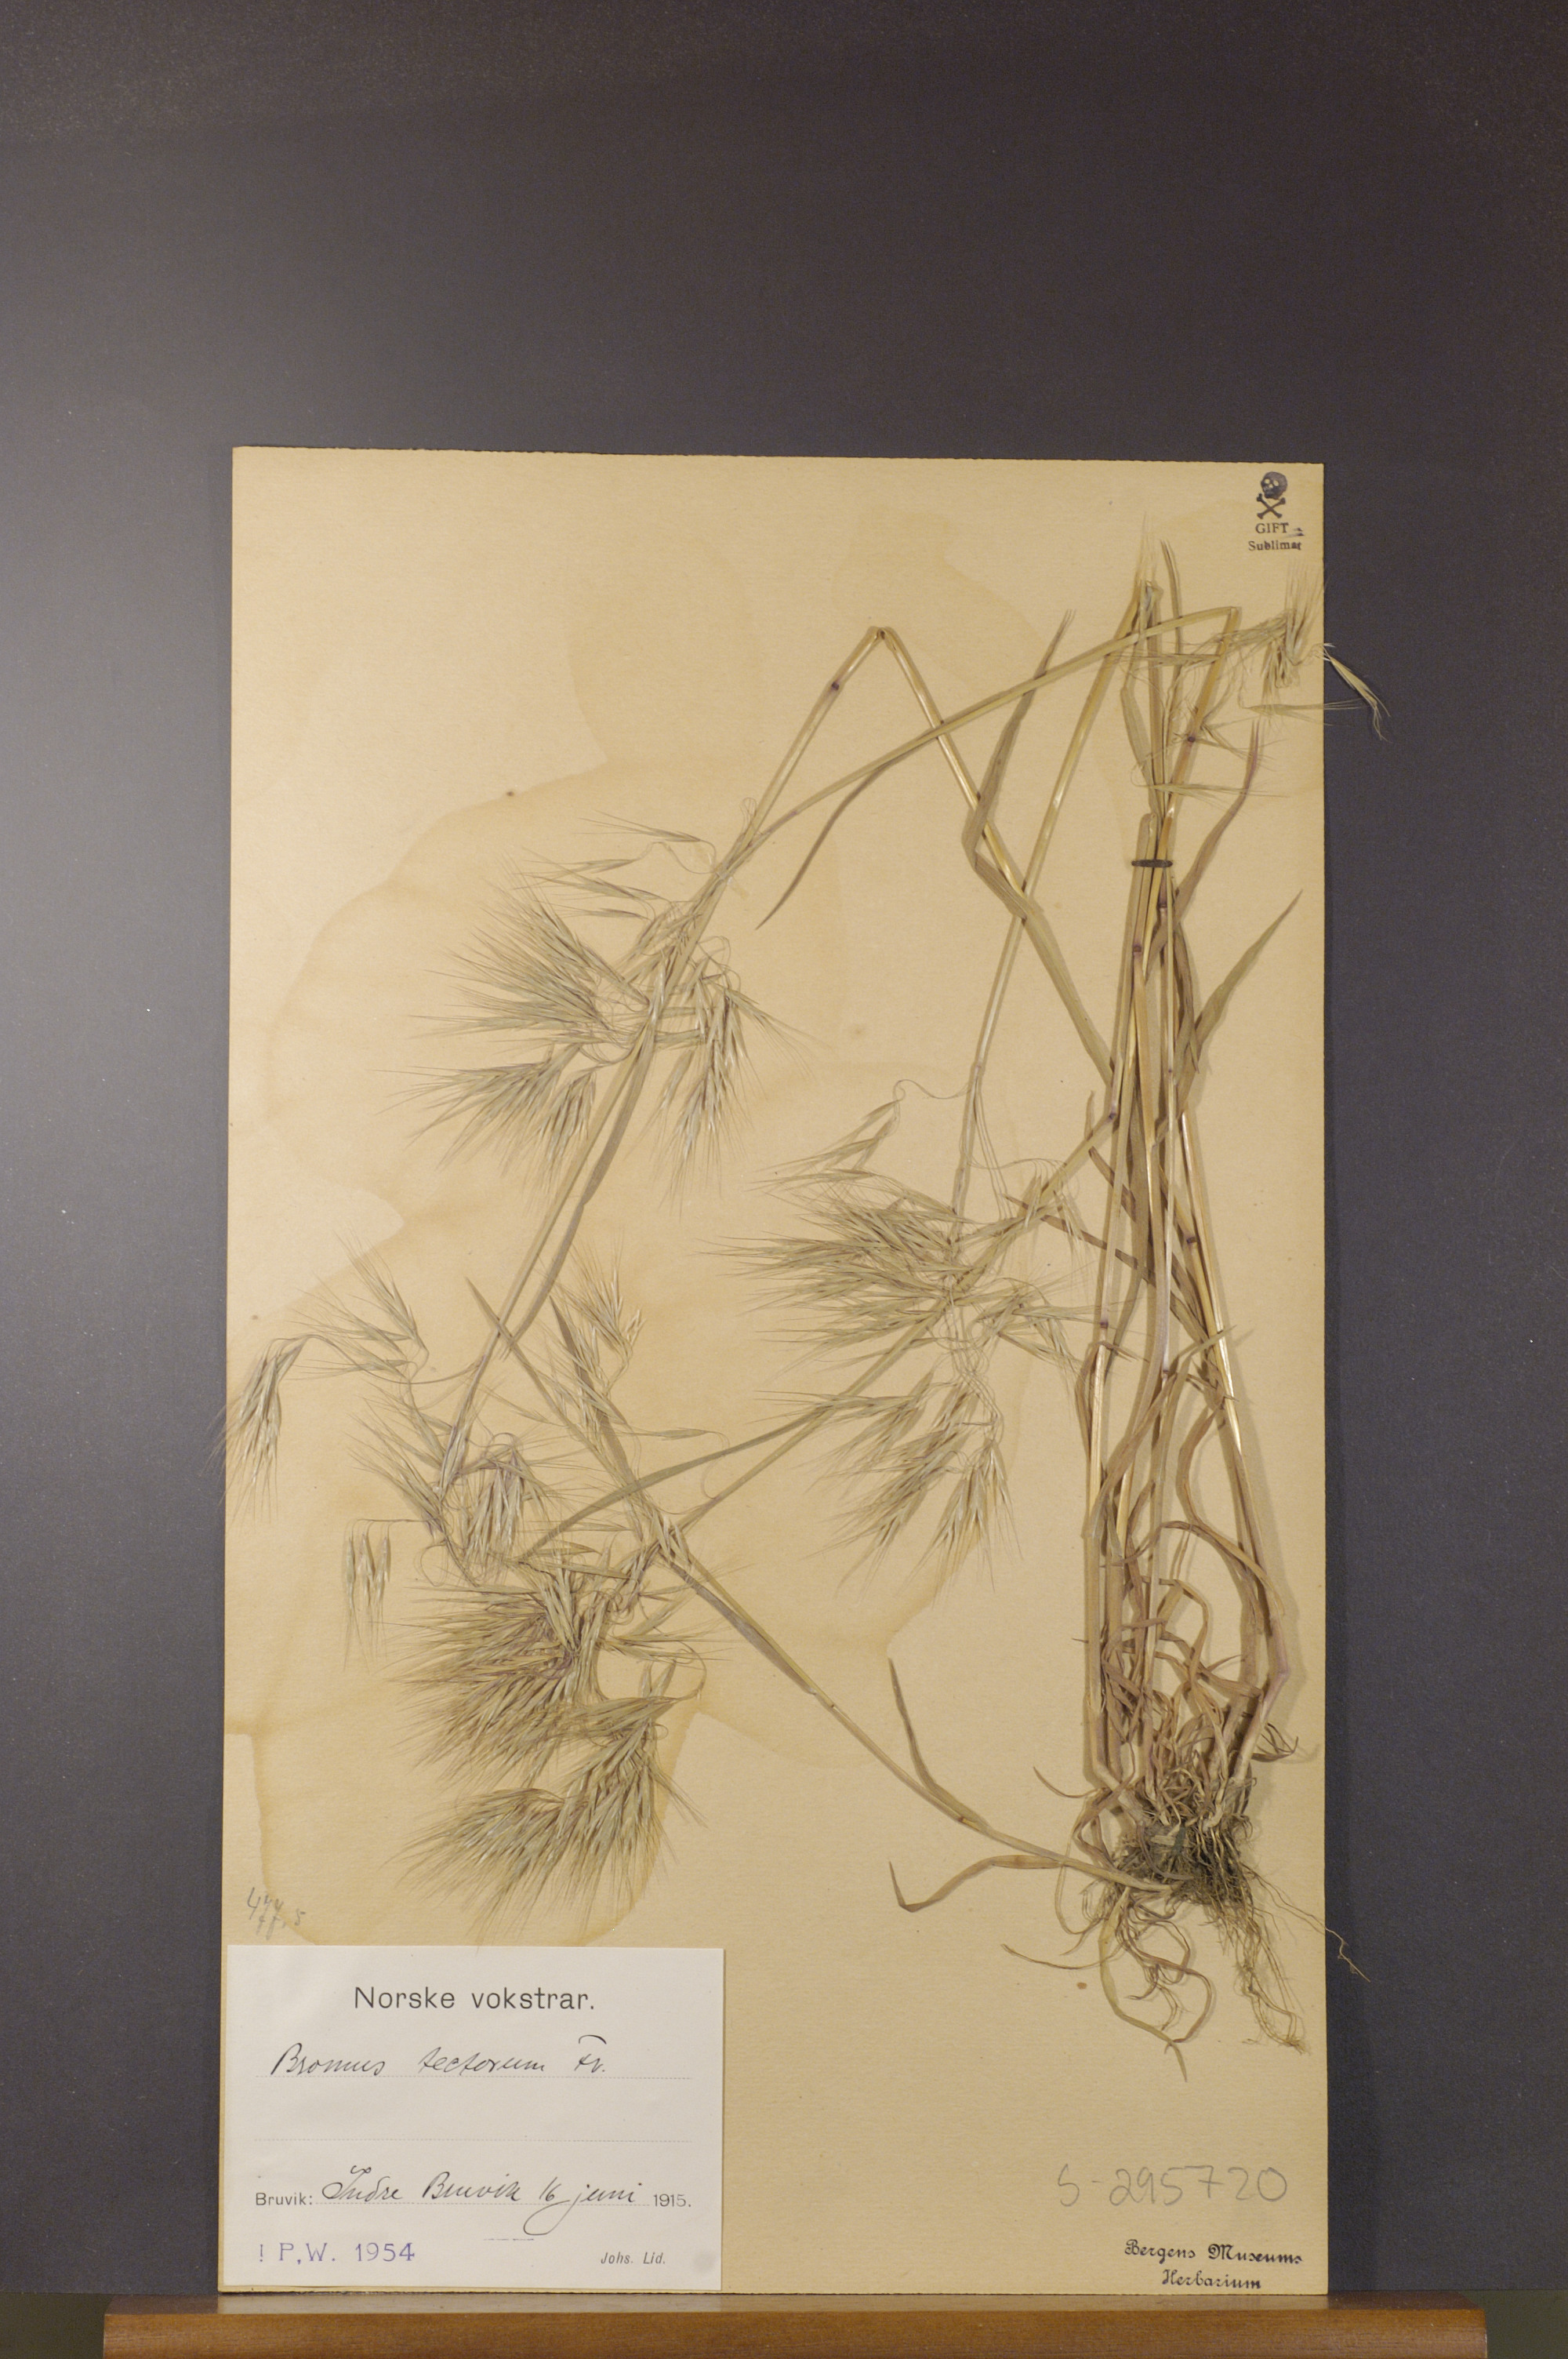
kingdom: Plantae
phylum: Tracheophyta
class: Liliopsida
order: Poales
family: Poaceae
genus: Bromus
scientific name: Bromus tectorum
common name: Cheatgrass
